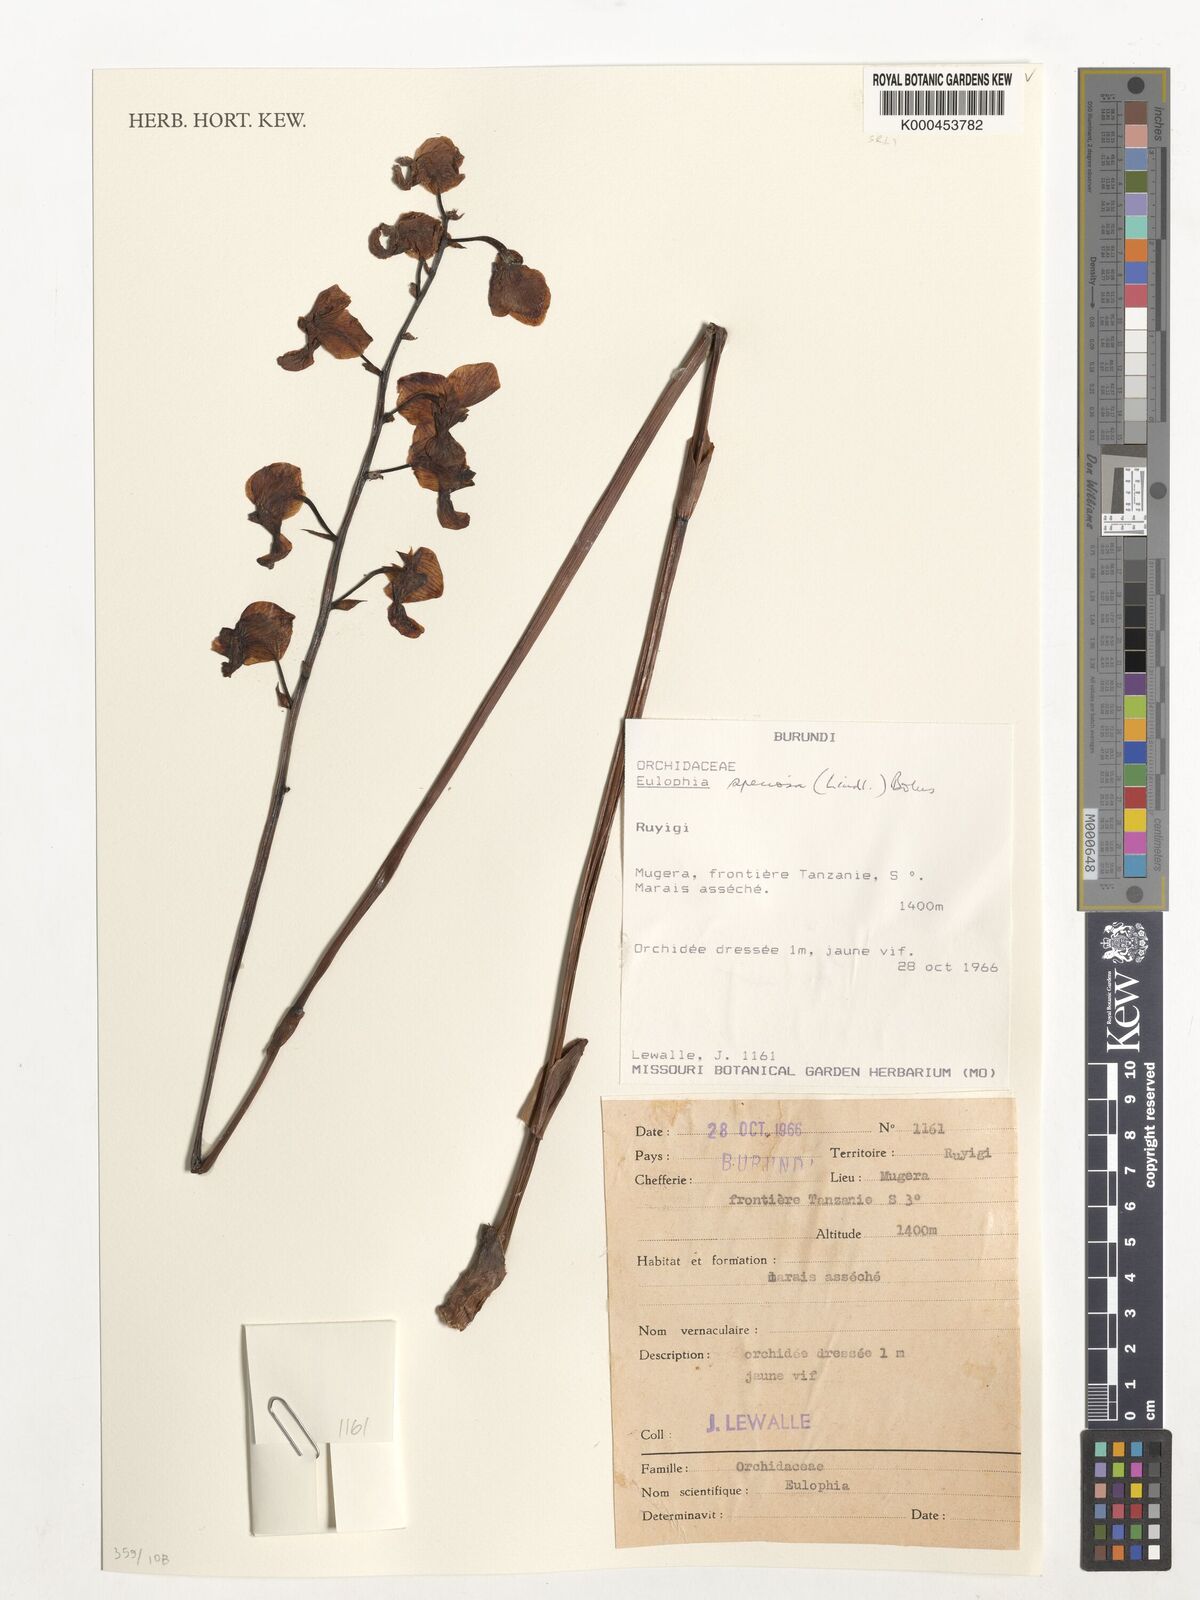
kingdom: Plantae
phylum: Tracheophyta
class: Liliopsida
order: Asparagales
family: Orchidaceae
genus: Eulophia
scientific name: Eulophia speciosa
